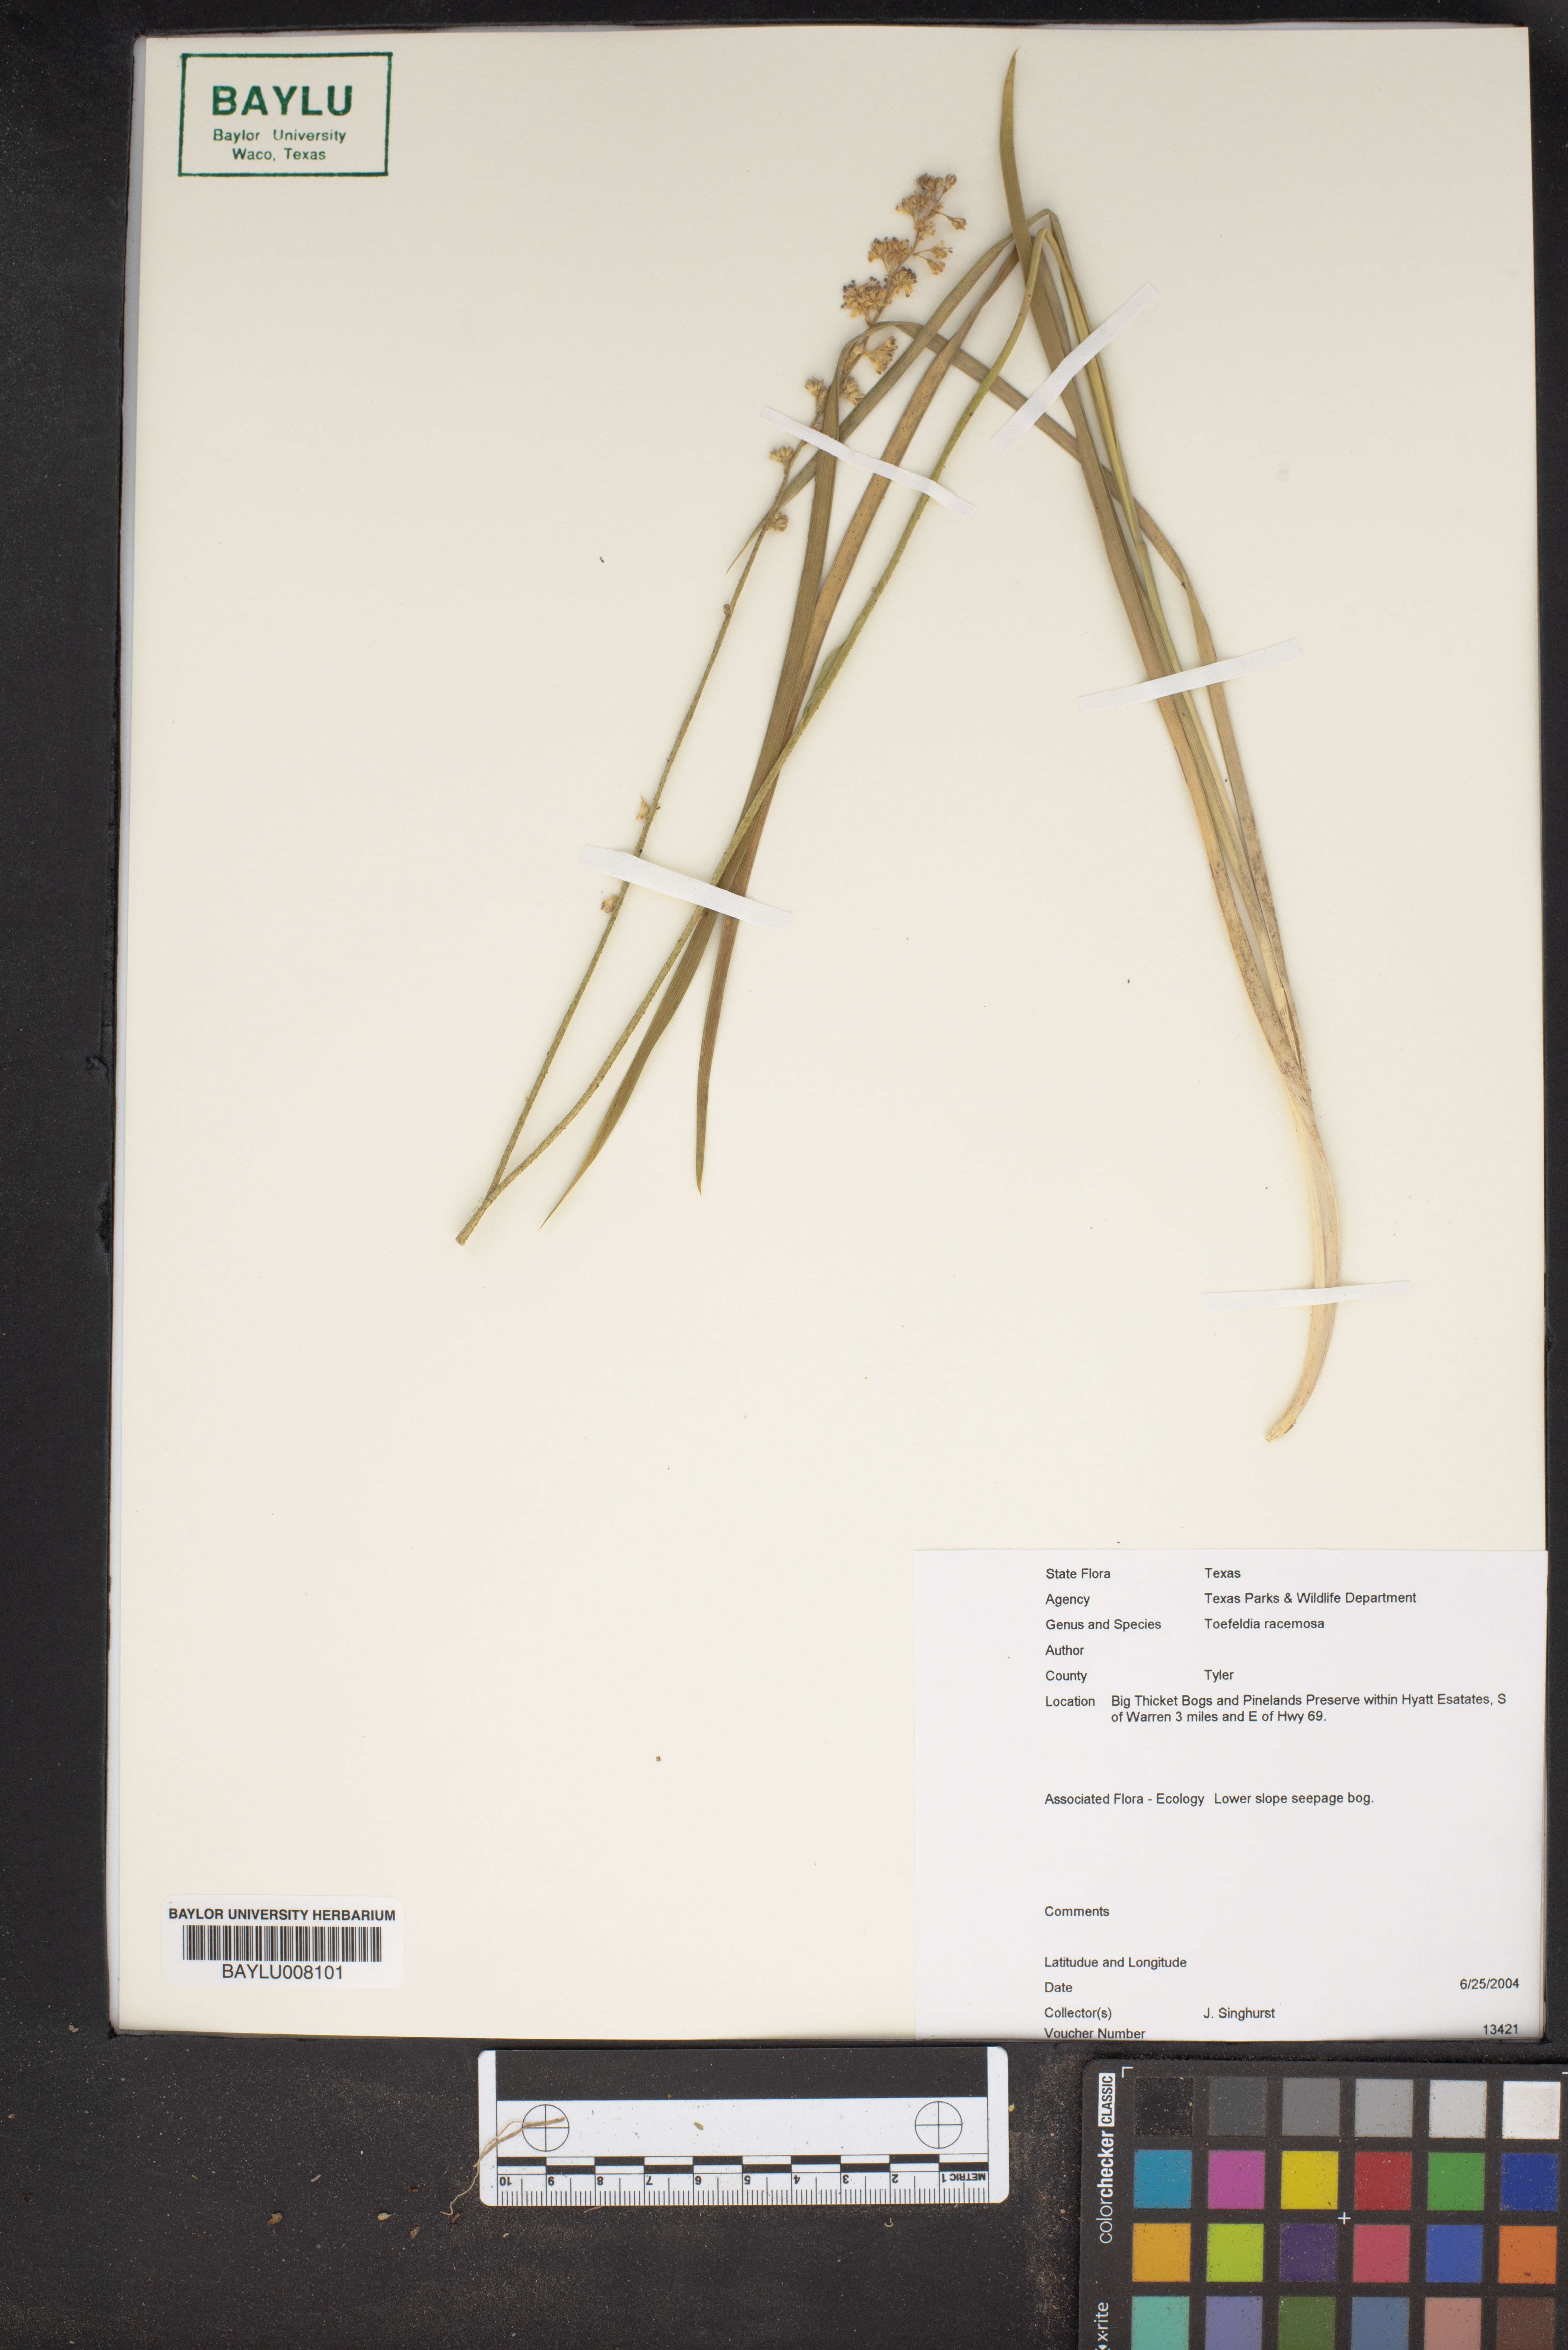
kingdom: Plantae
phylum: Tracheophyta
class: Liliopsida
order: Alismatales
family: Tofieldiaceae
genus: Triantha
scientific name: Triantha racemosa
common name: Coastal false asphodel
